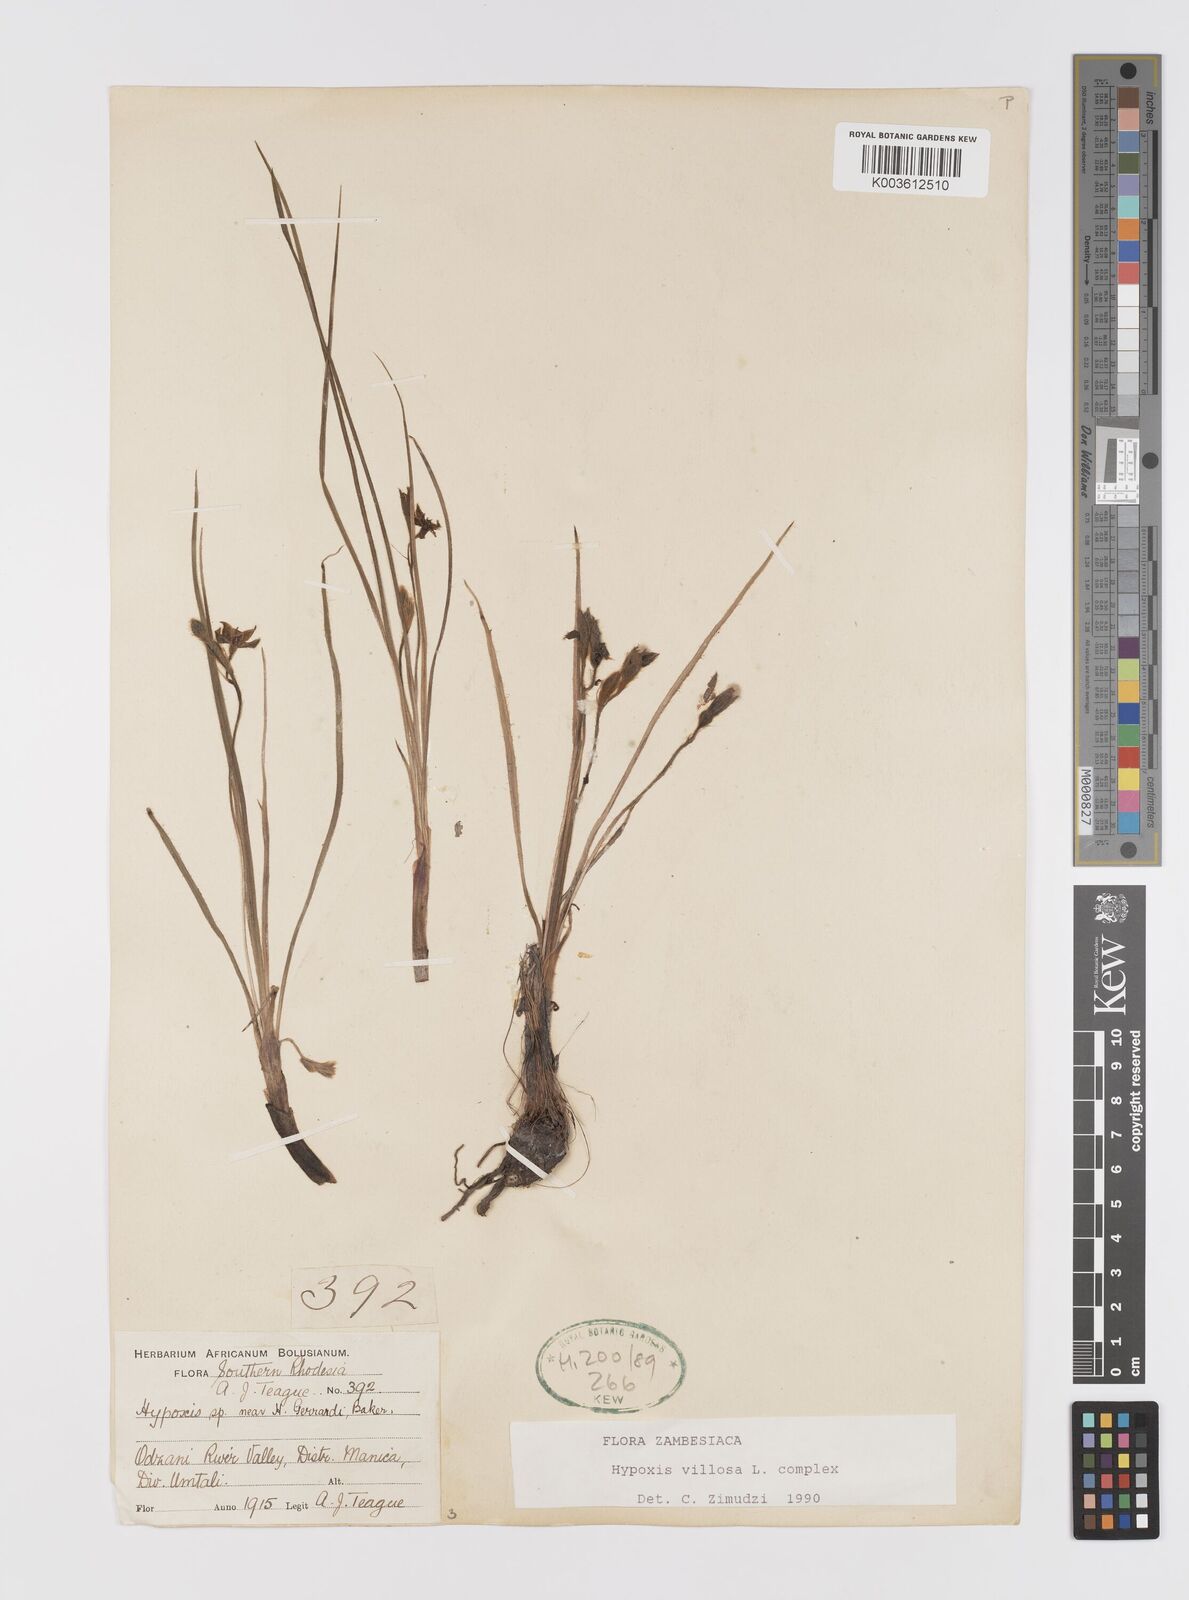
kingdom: Plantae
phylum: Tracheophyta
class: Liliopsida
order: Asparagales
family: Hypoxidaceae
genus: Hypoxis
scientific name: Hypoxis nyasica
